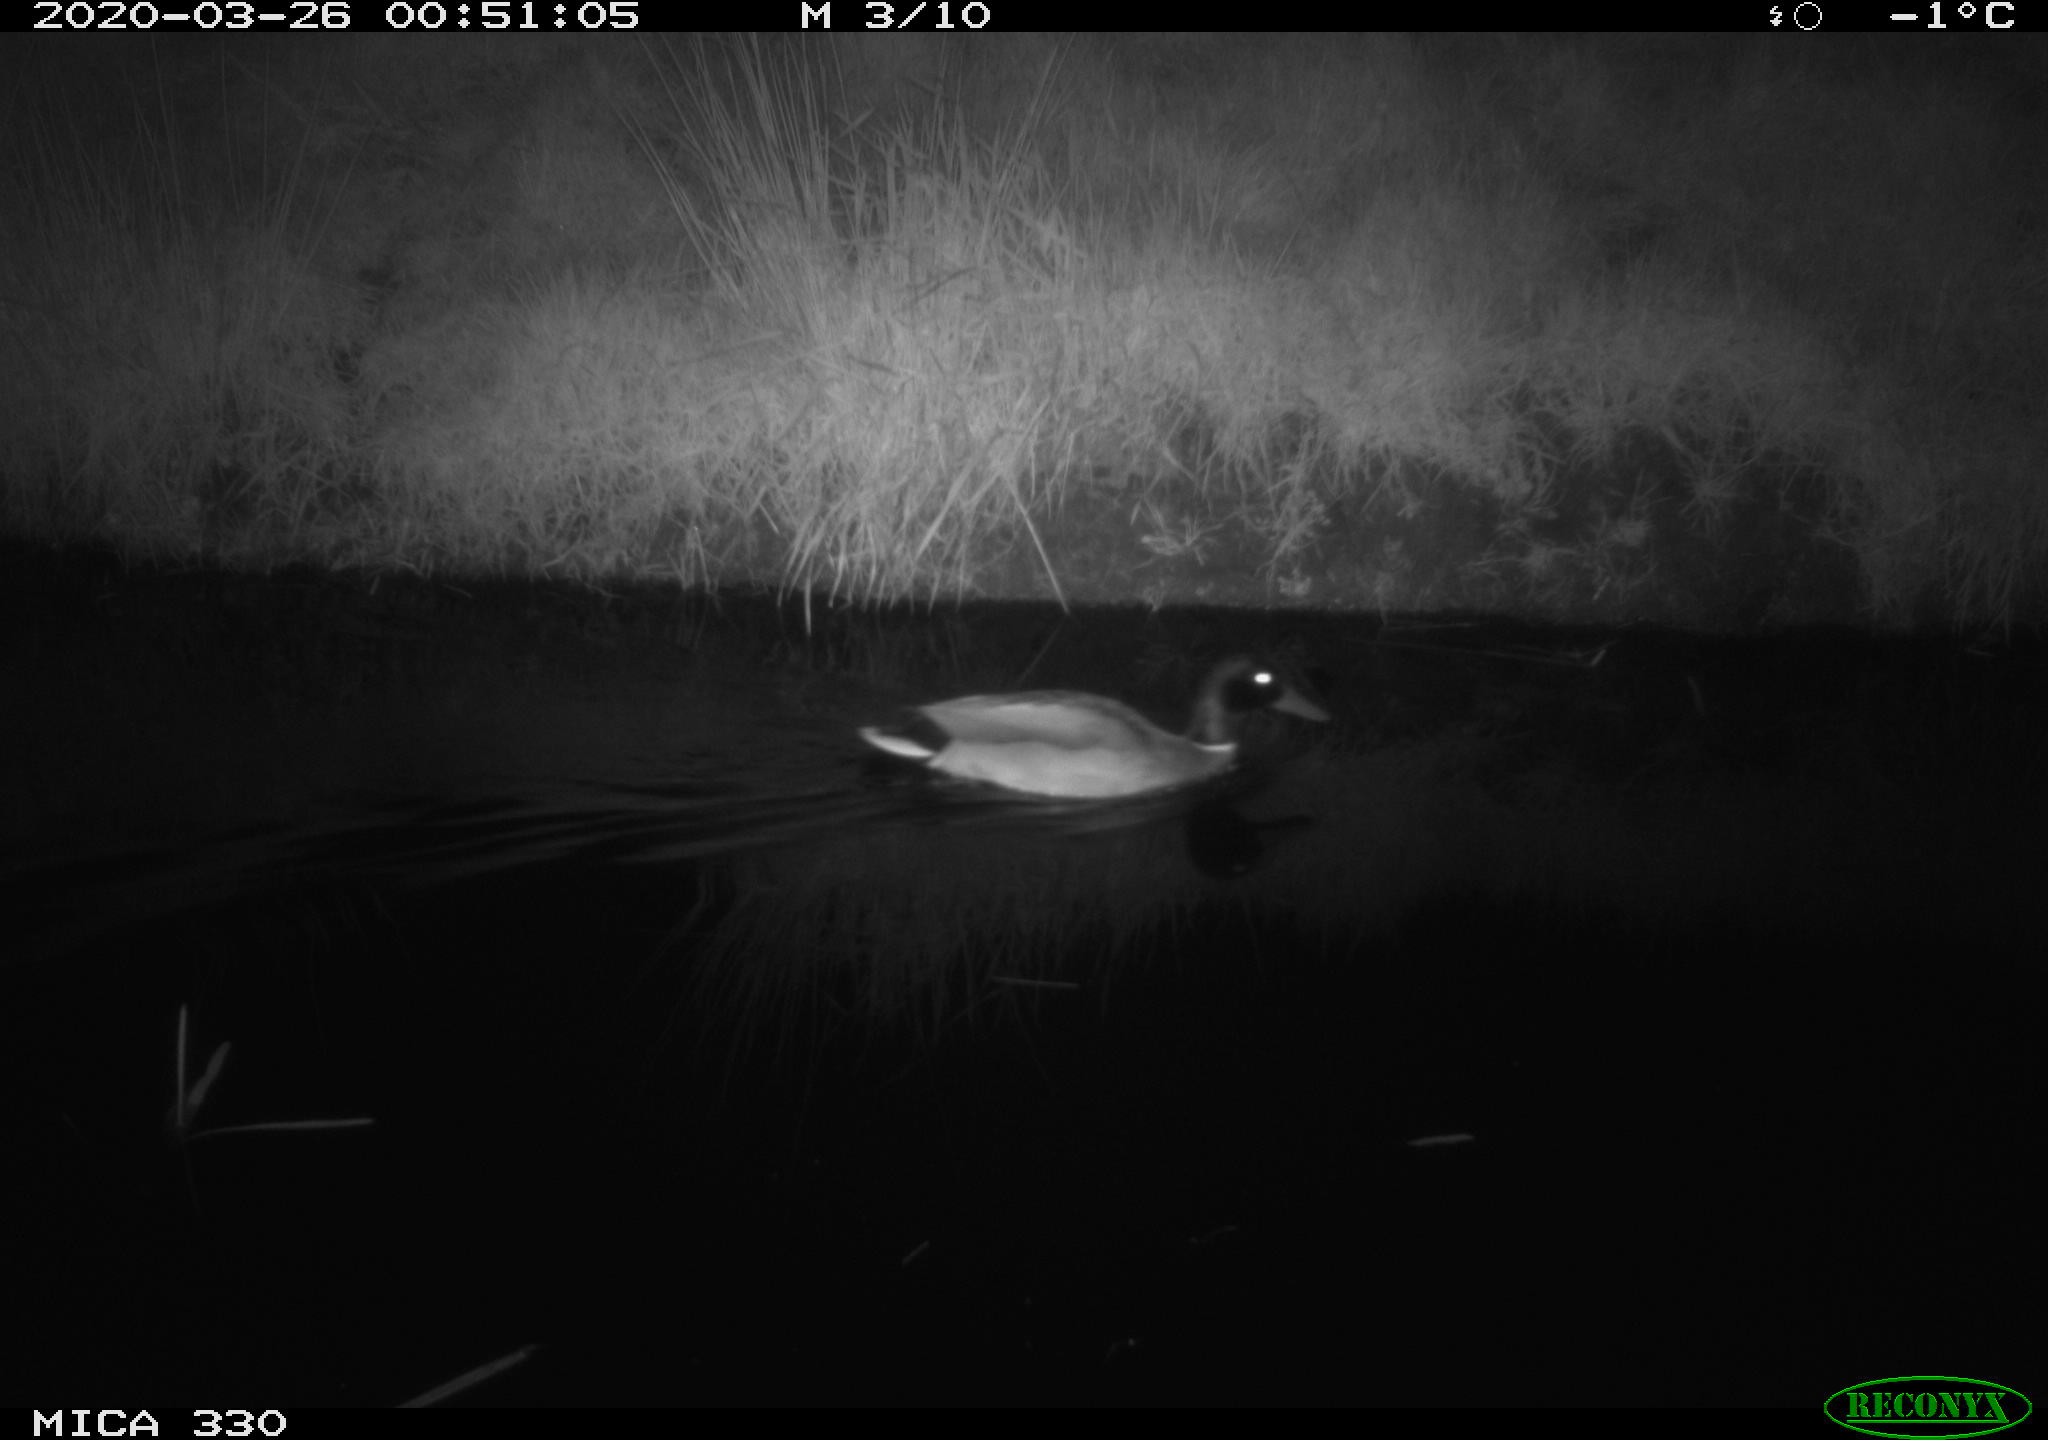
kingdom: Animalia
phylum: Chordata
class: Aves
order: Anseriformes
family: Anatidae
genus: Anas
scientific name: Anas platyrhynchos
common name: Mallard
